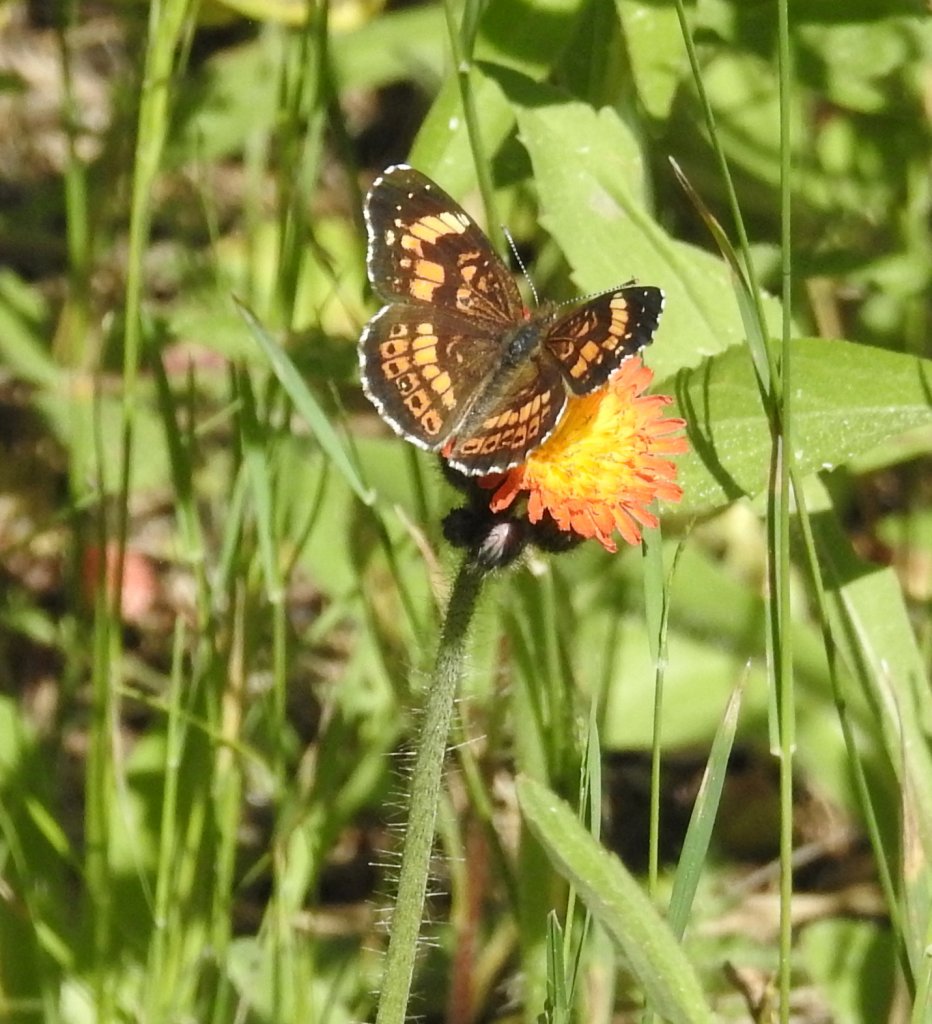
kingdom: Animalia
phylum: Arthropoda
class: Insecta
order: Lepidoptera
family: Nymphalidae
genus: Chlosyne
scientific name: Chlosyne nycteis
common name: Silvery Checkerspot
